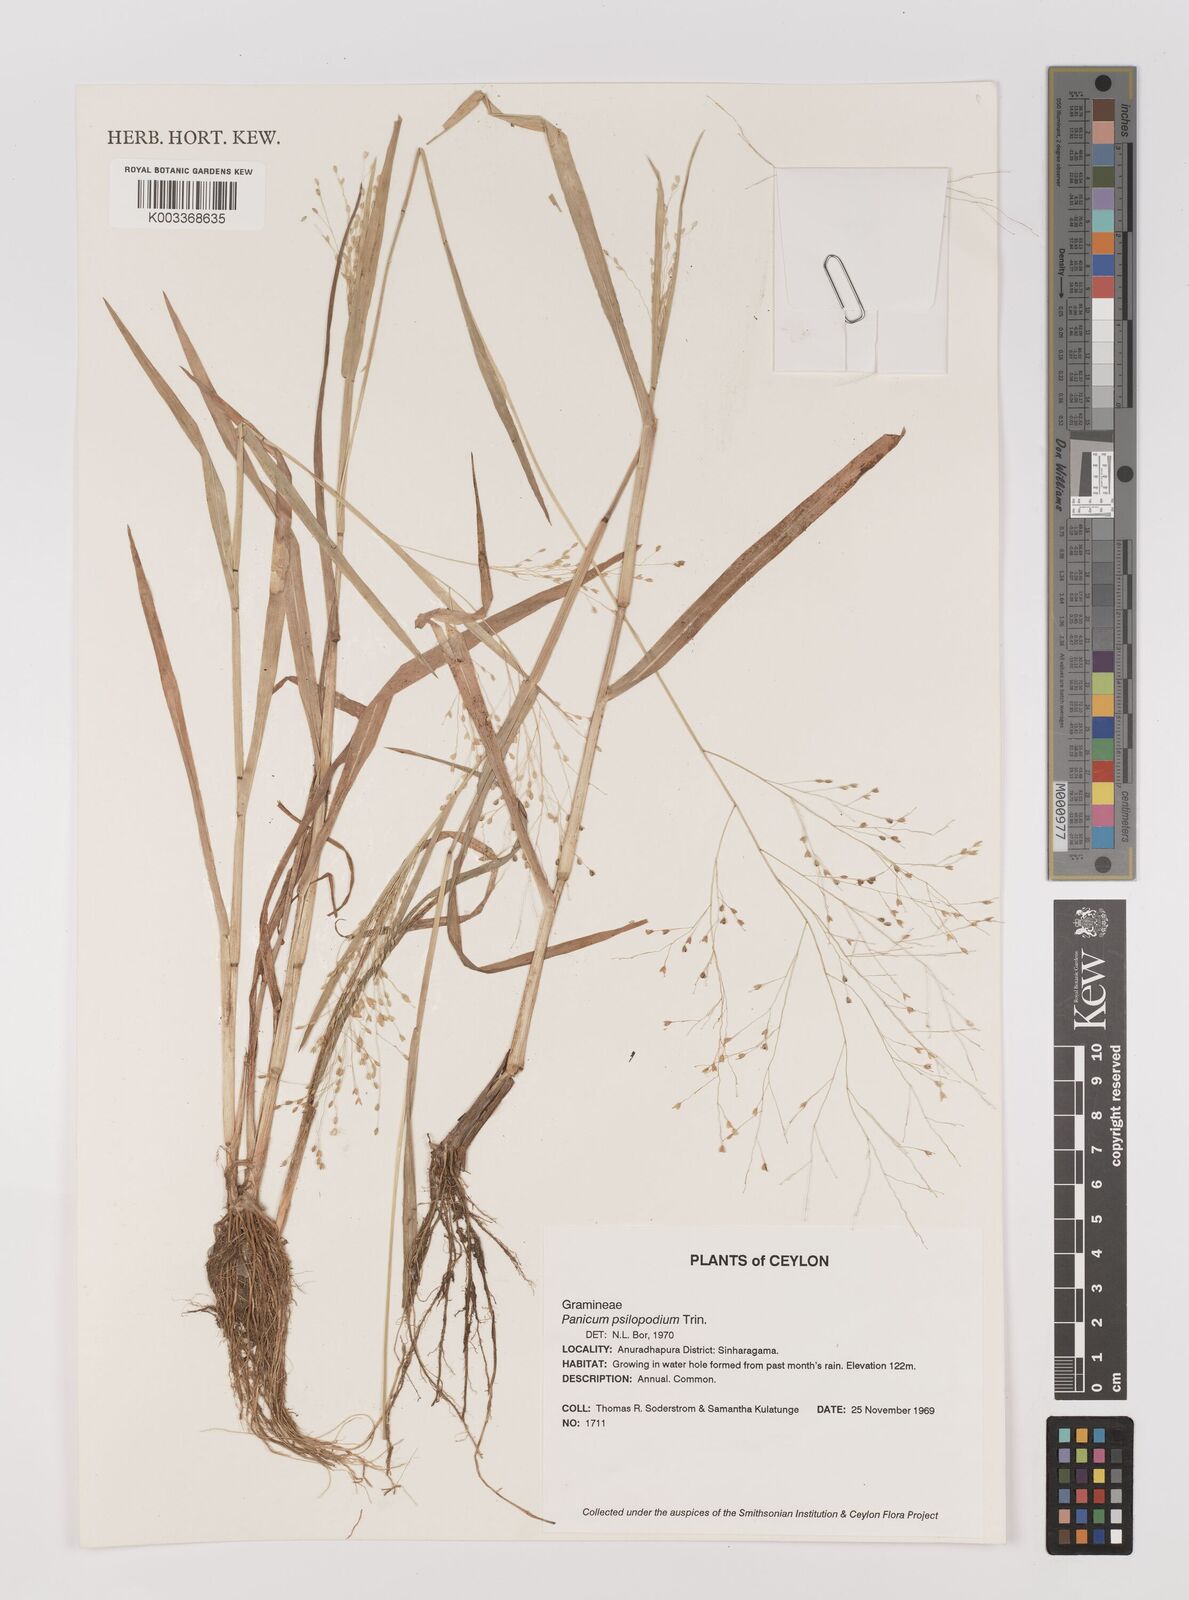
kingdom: Plantae
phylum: Tracheophyta
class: Liliopsida
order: Poales
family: Poaceae
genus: Panicum
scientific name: Panicum sumatrense
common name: Little millet
